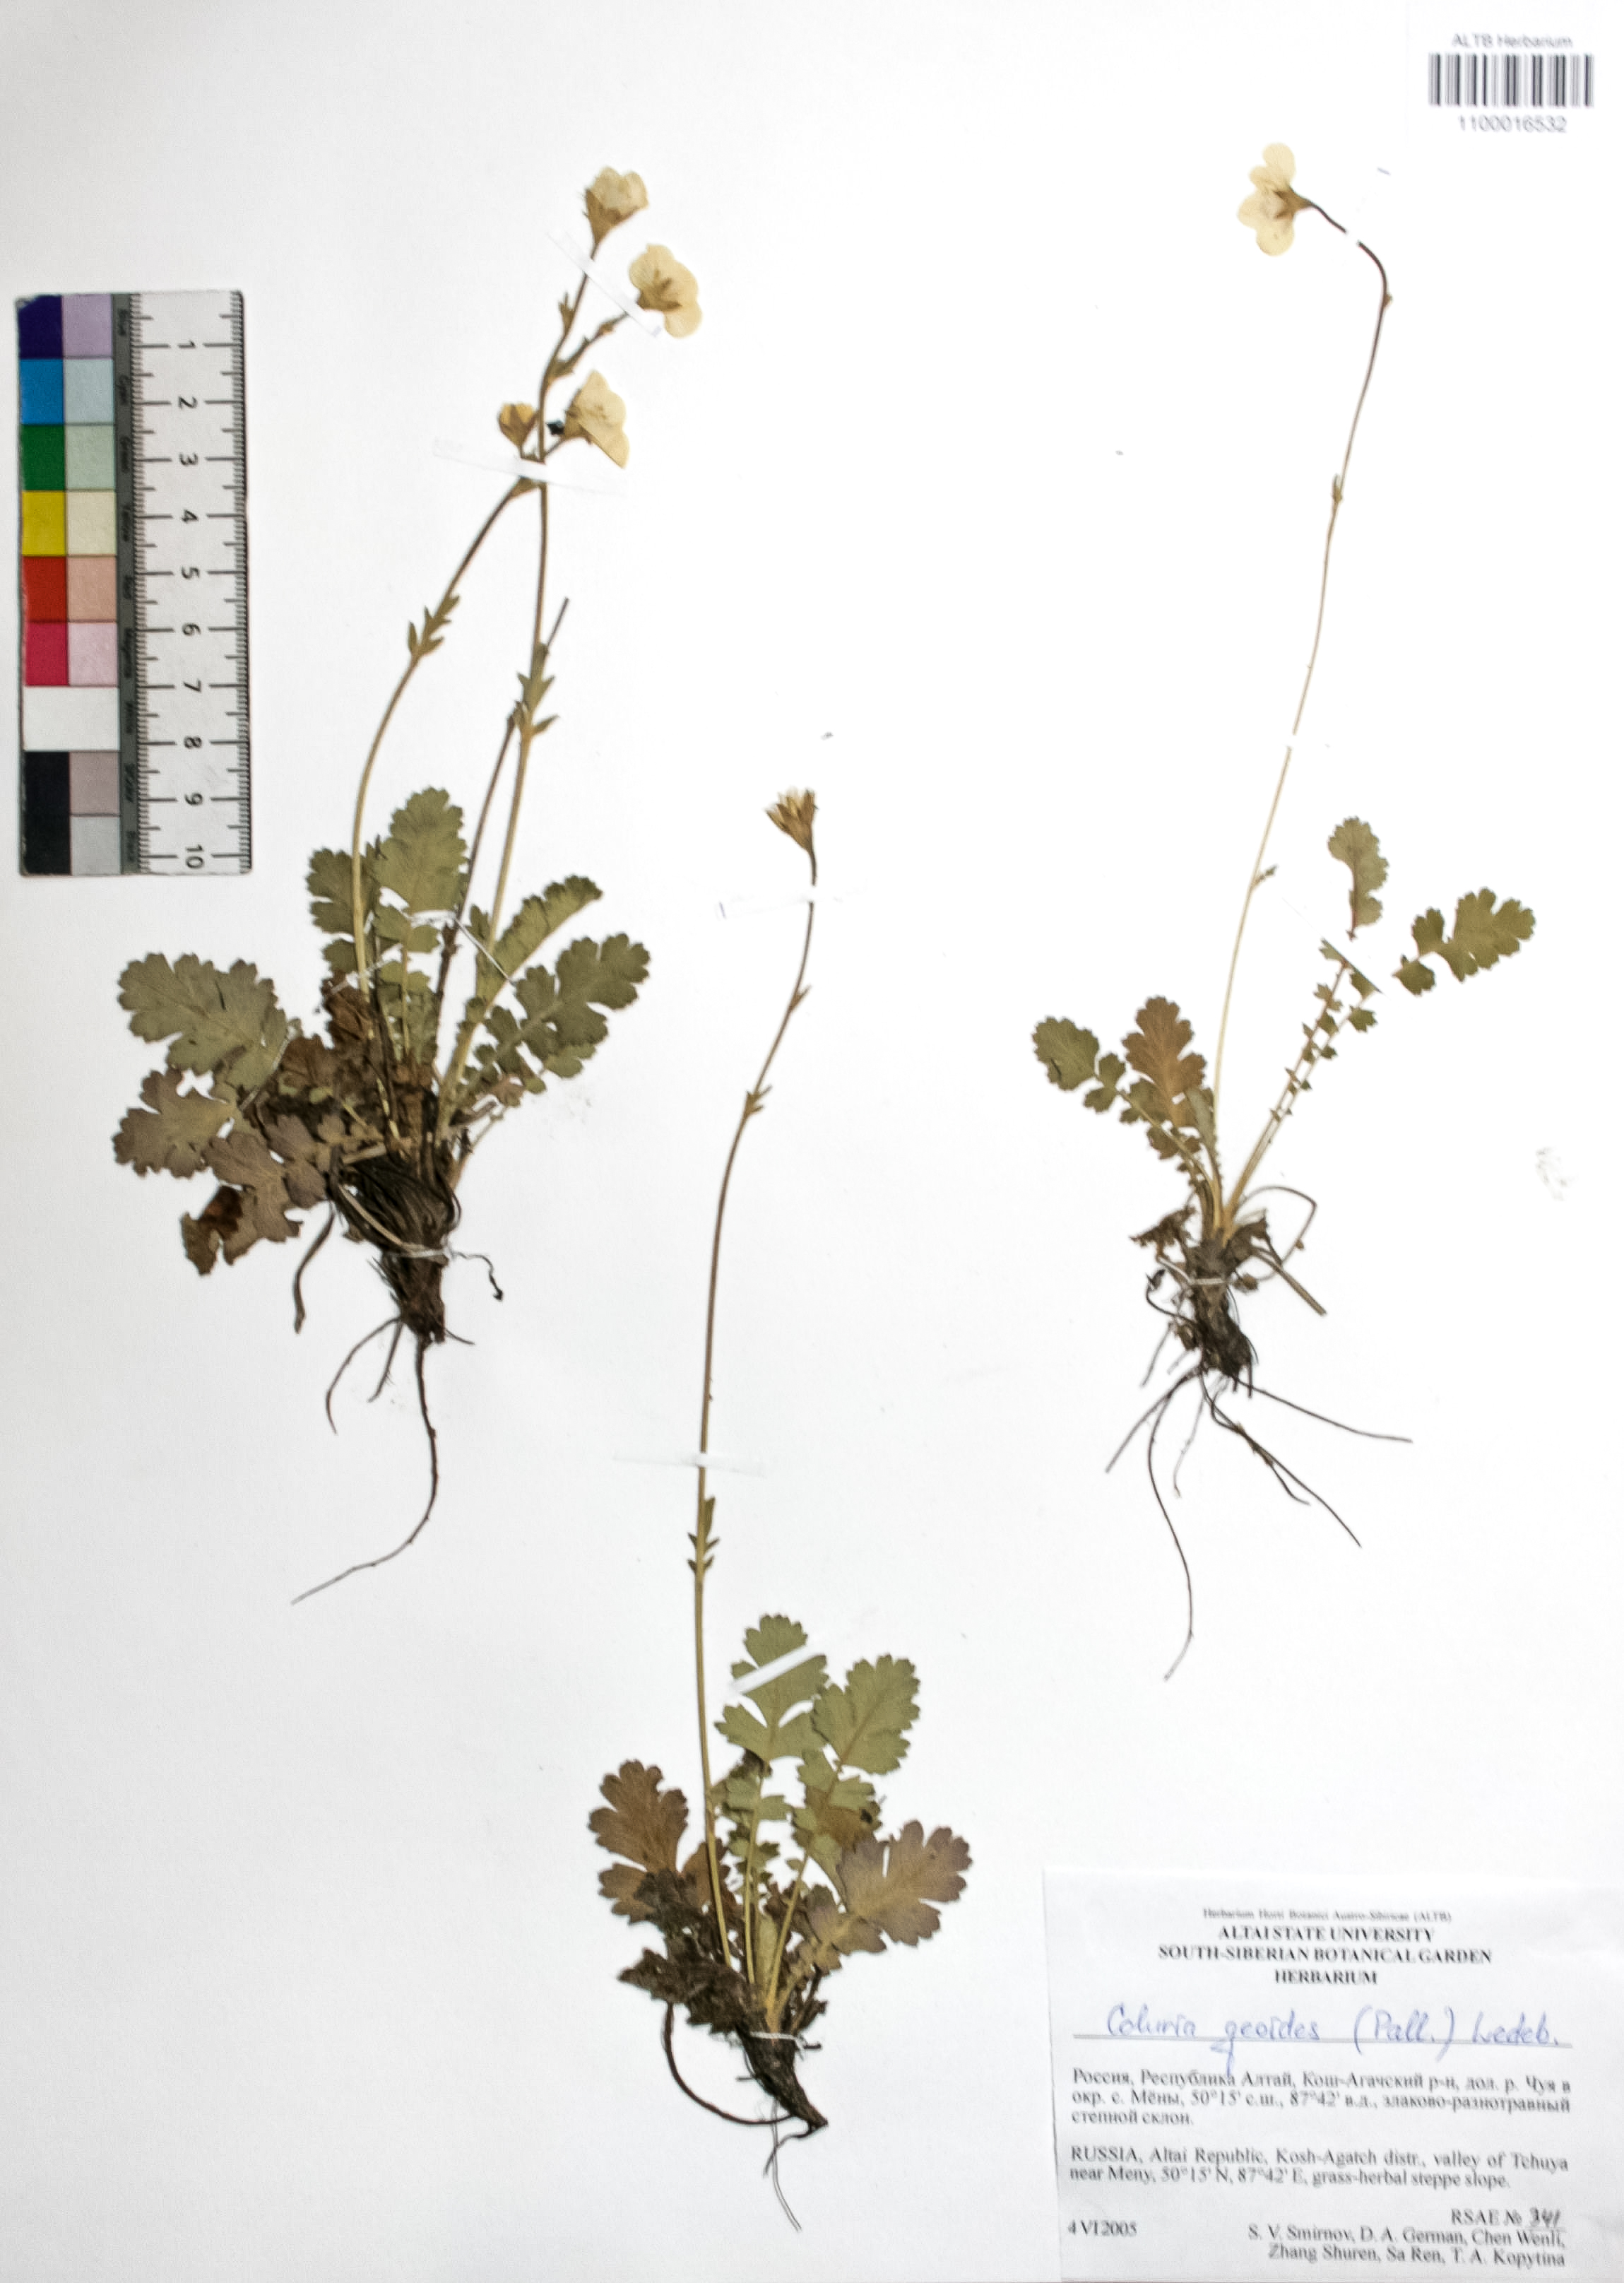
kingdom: Plantae
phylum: Tracheophyta
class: Magnoliopsida
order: Rosales
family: Rosaceae
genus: Geum
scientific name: Geum geoides
